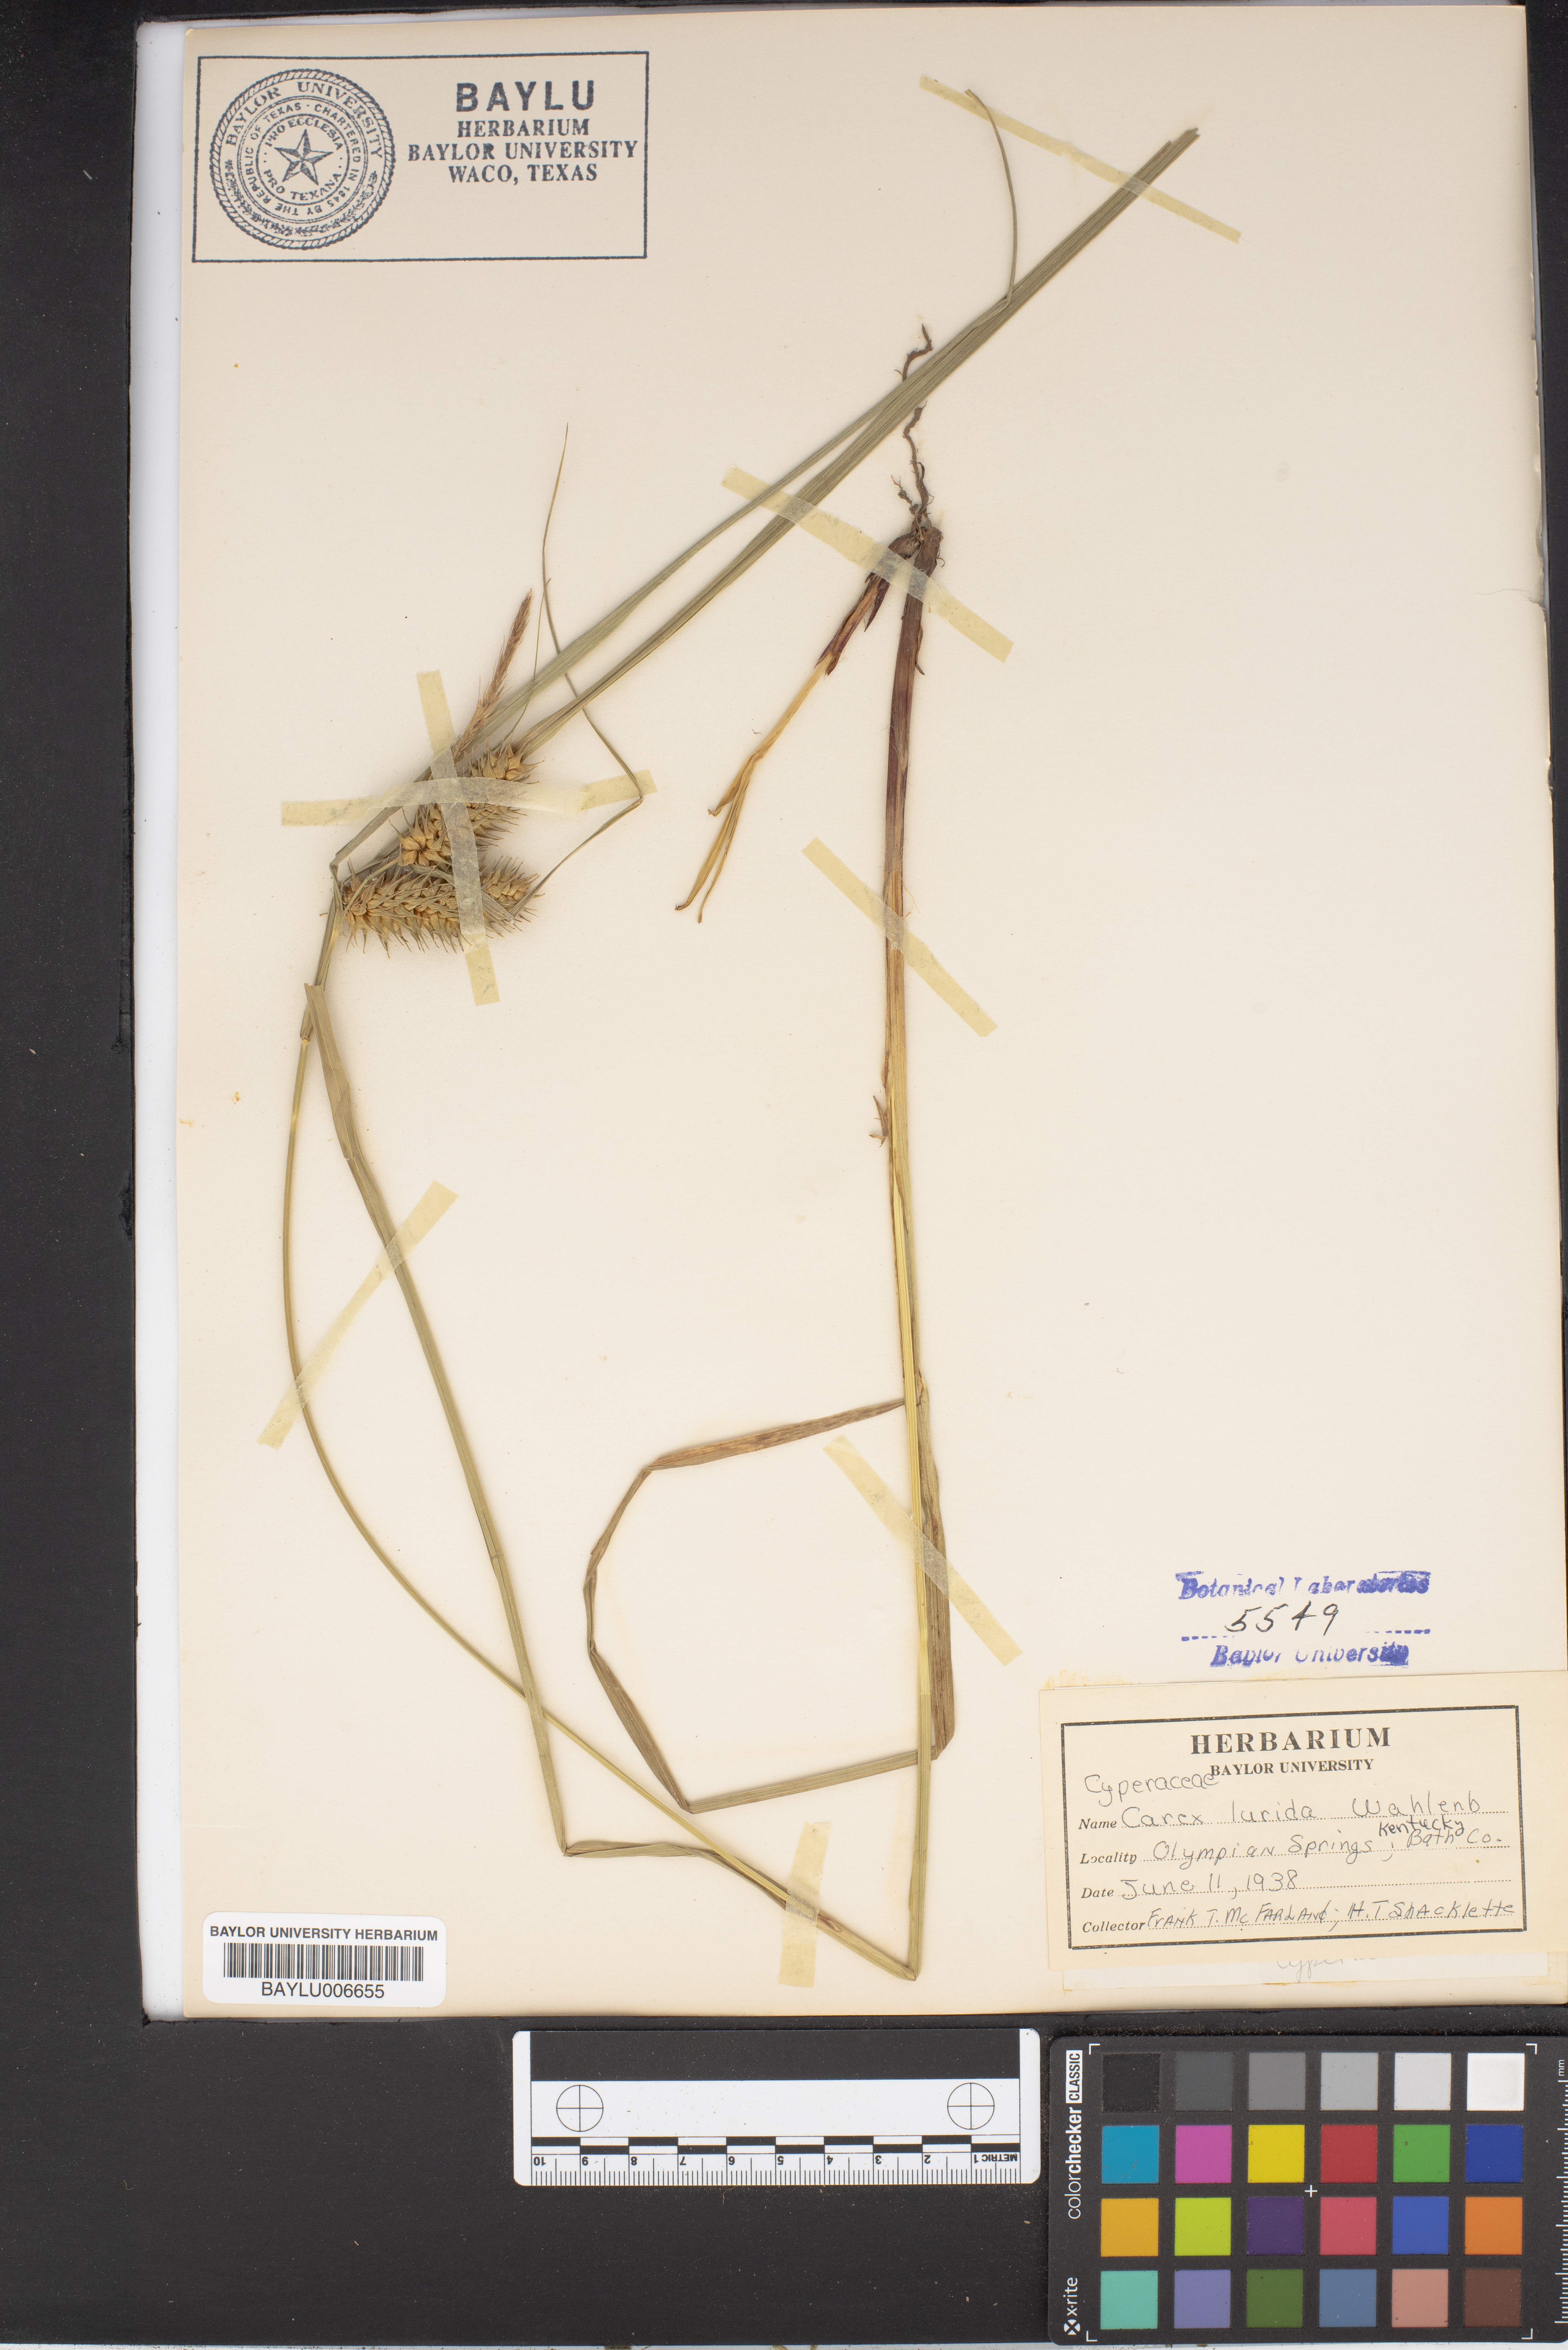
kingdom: Plantae
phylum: Tracheophyta
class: Liliopsida
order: Poales
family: Cyperaceae
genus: Carex
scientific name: Carex lurida
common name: Sallow sedge
